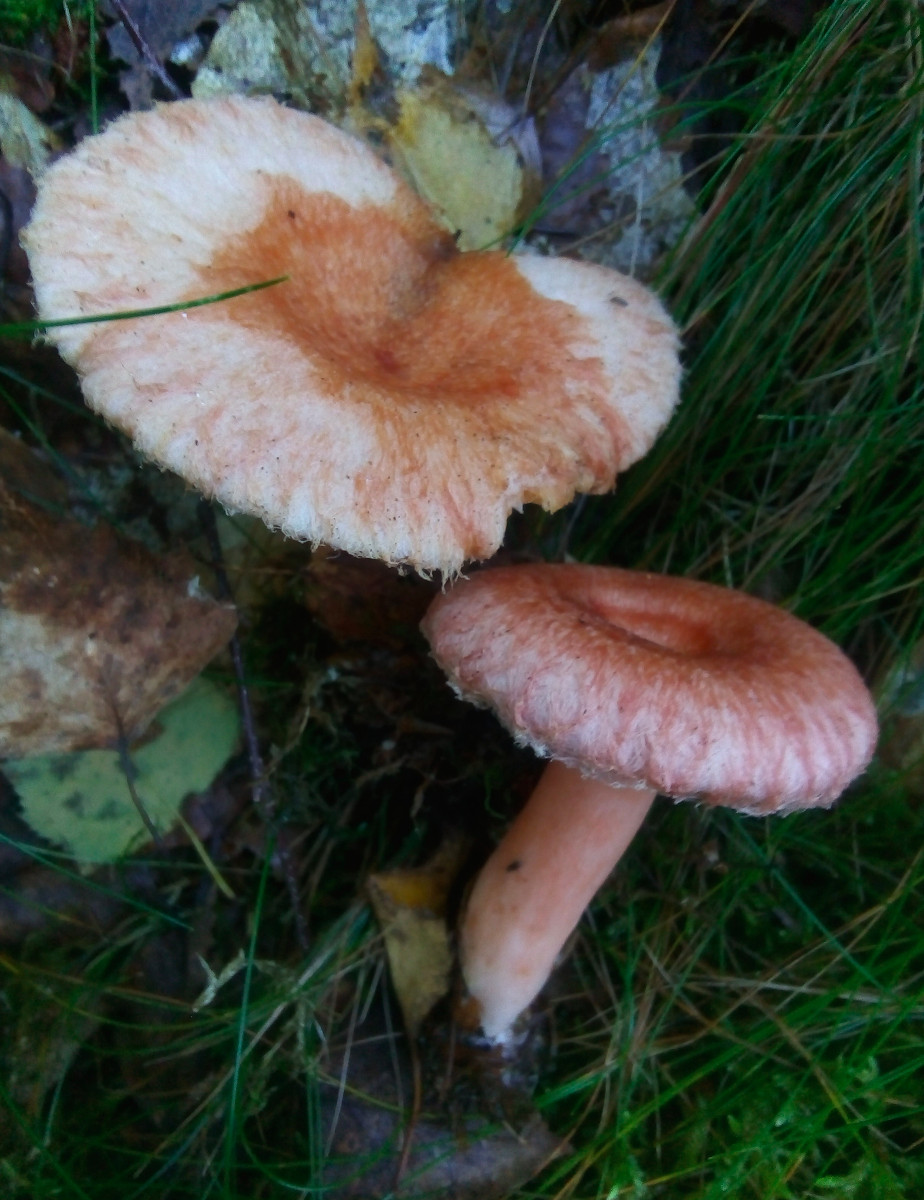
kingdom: Fungi
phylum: Basidiomycota
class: Agaricomycetes
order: Russulales
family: Russulaceae
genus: Lactarius
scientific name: Lactarius torminosus
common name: skægget mælkehat
